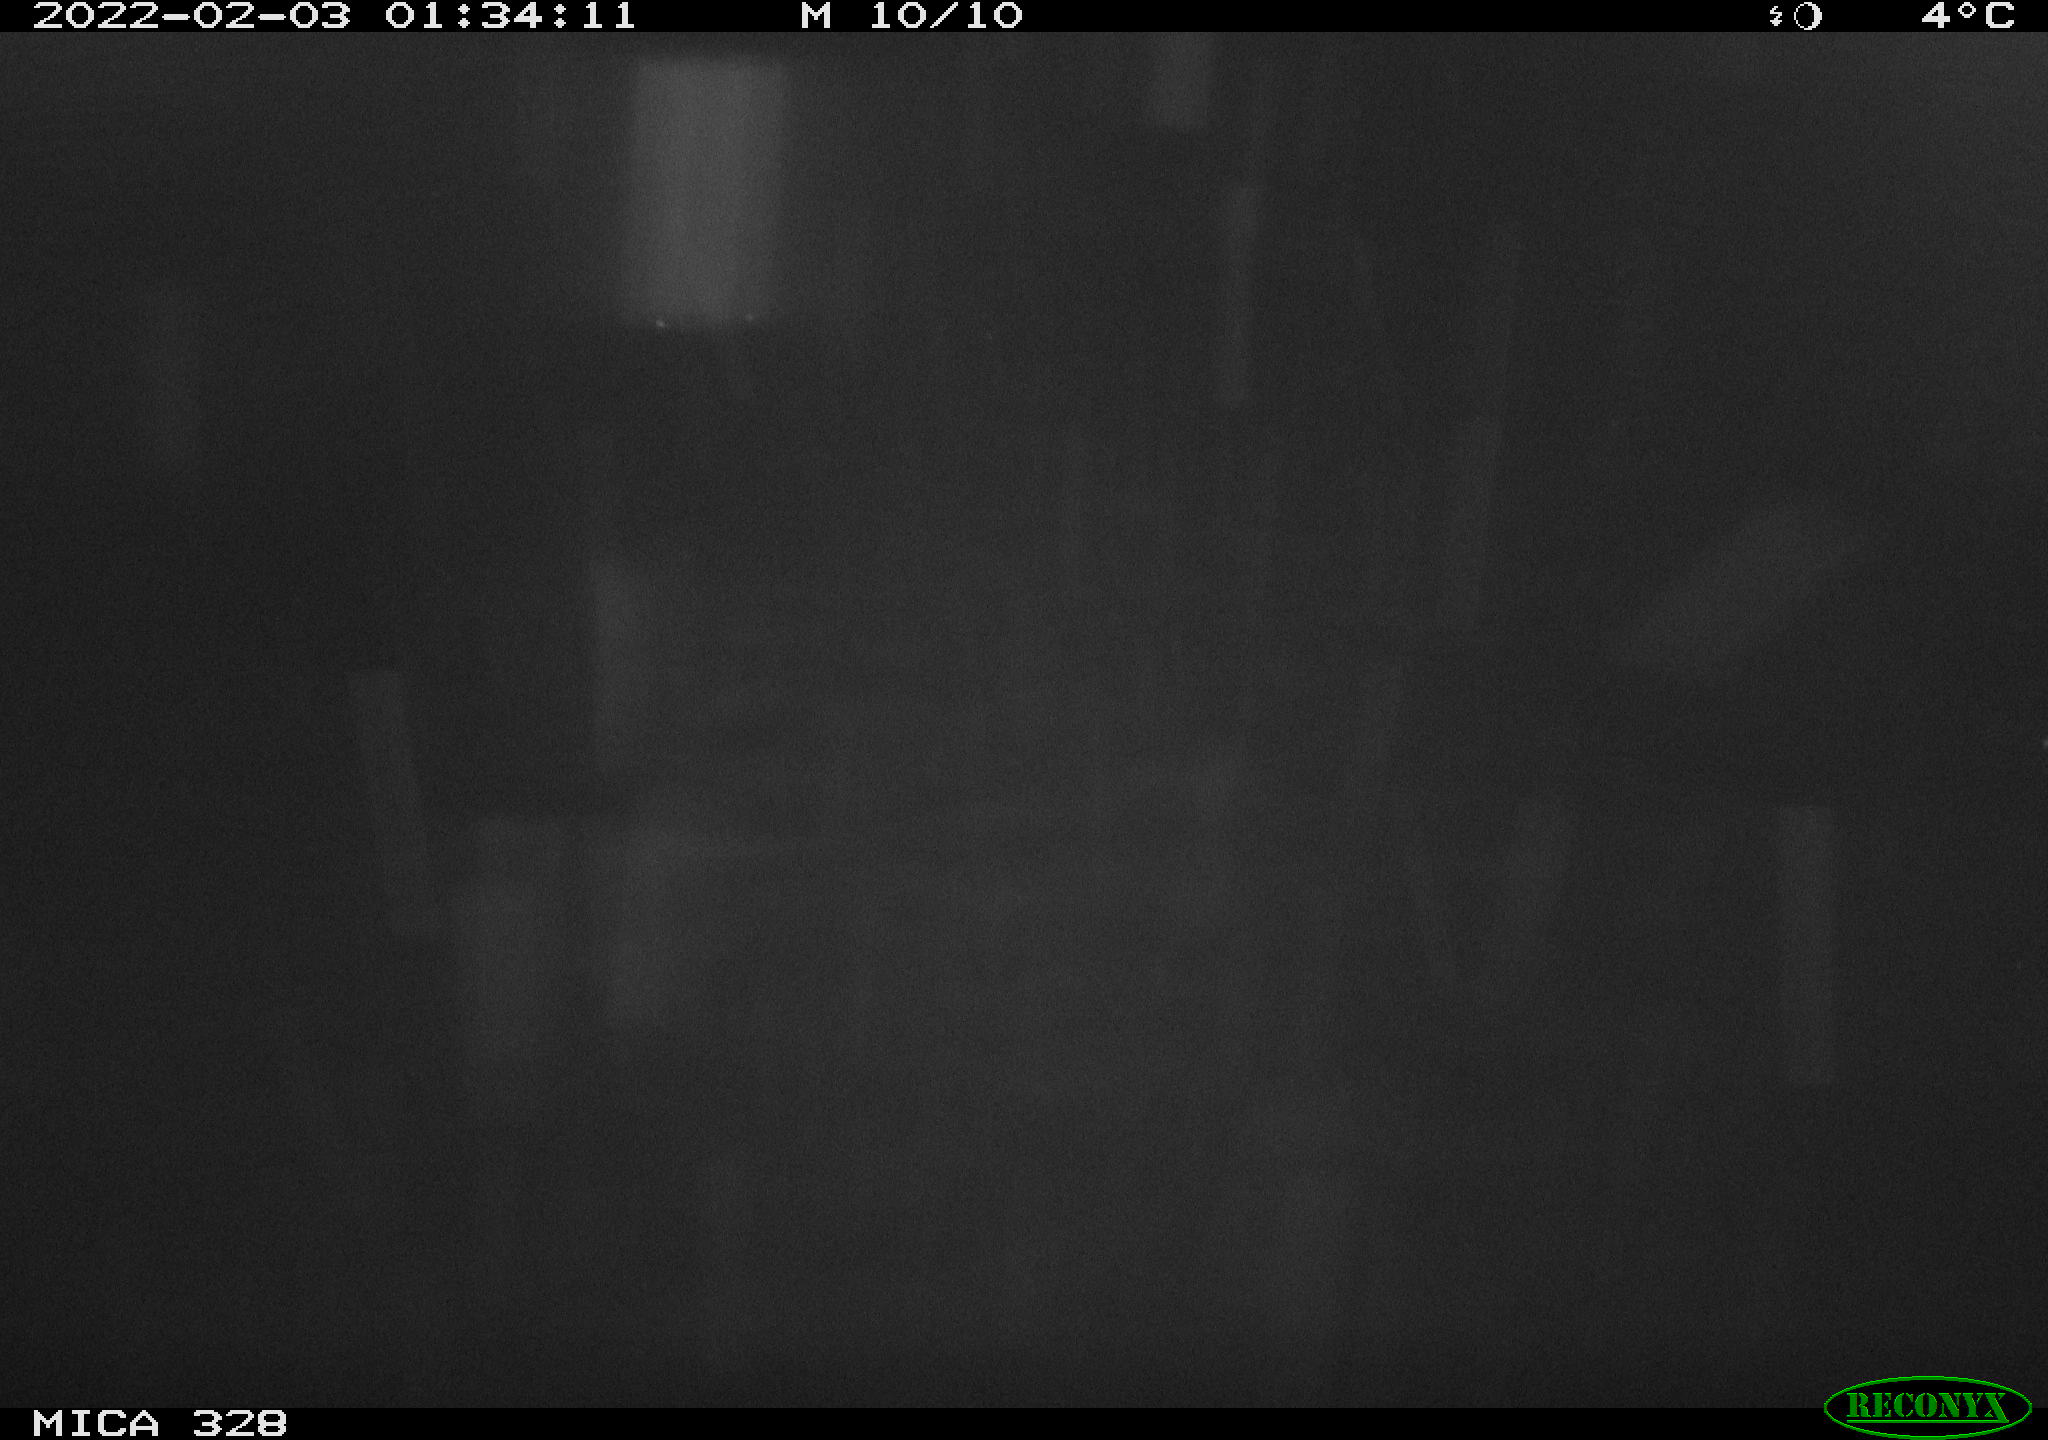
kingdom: Animalia
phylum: Chordata
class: Mammalia
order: Rodentia
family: Cricetidae
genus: Ondatra
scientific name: Ondatra zibethicus
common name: Muskrat
